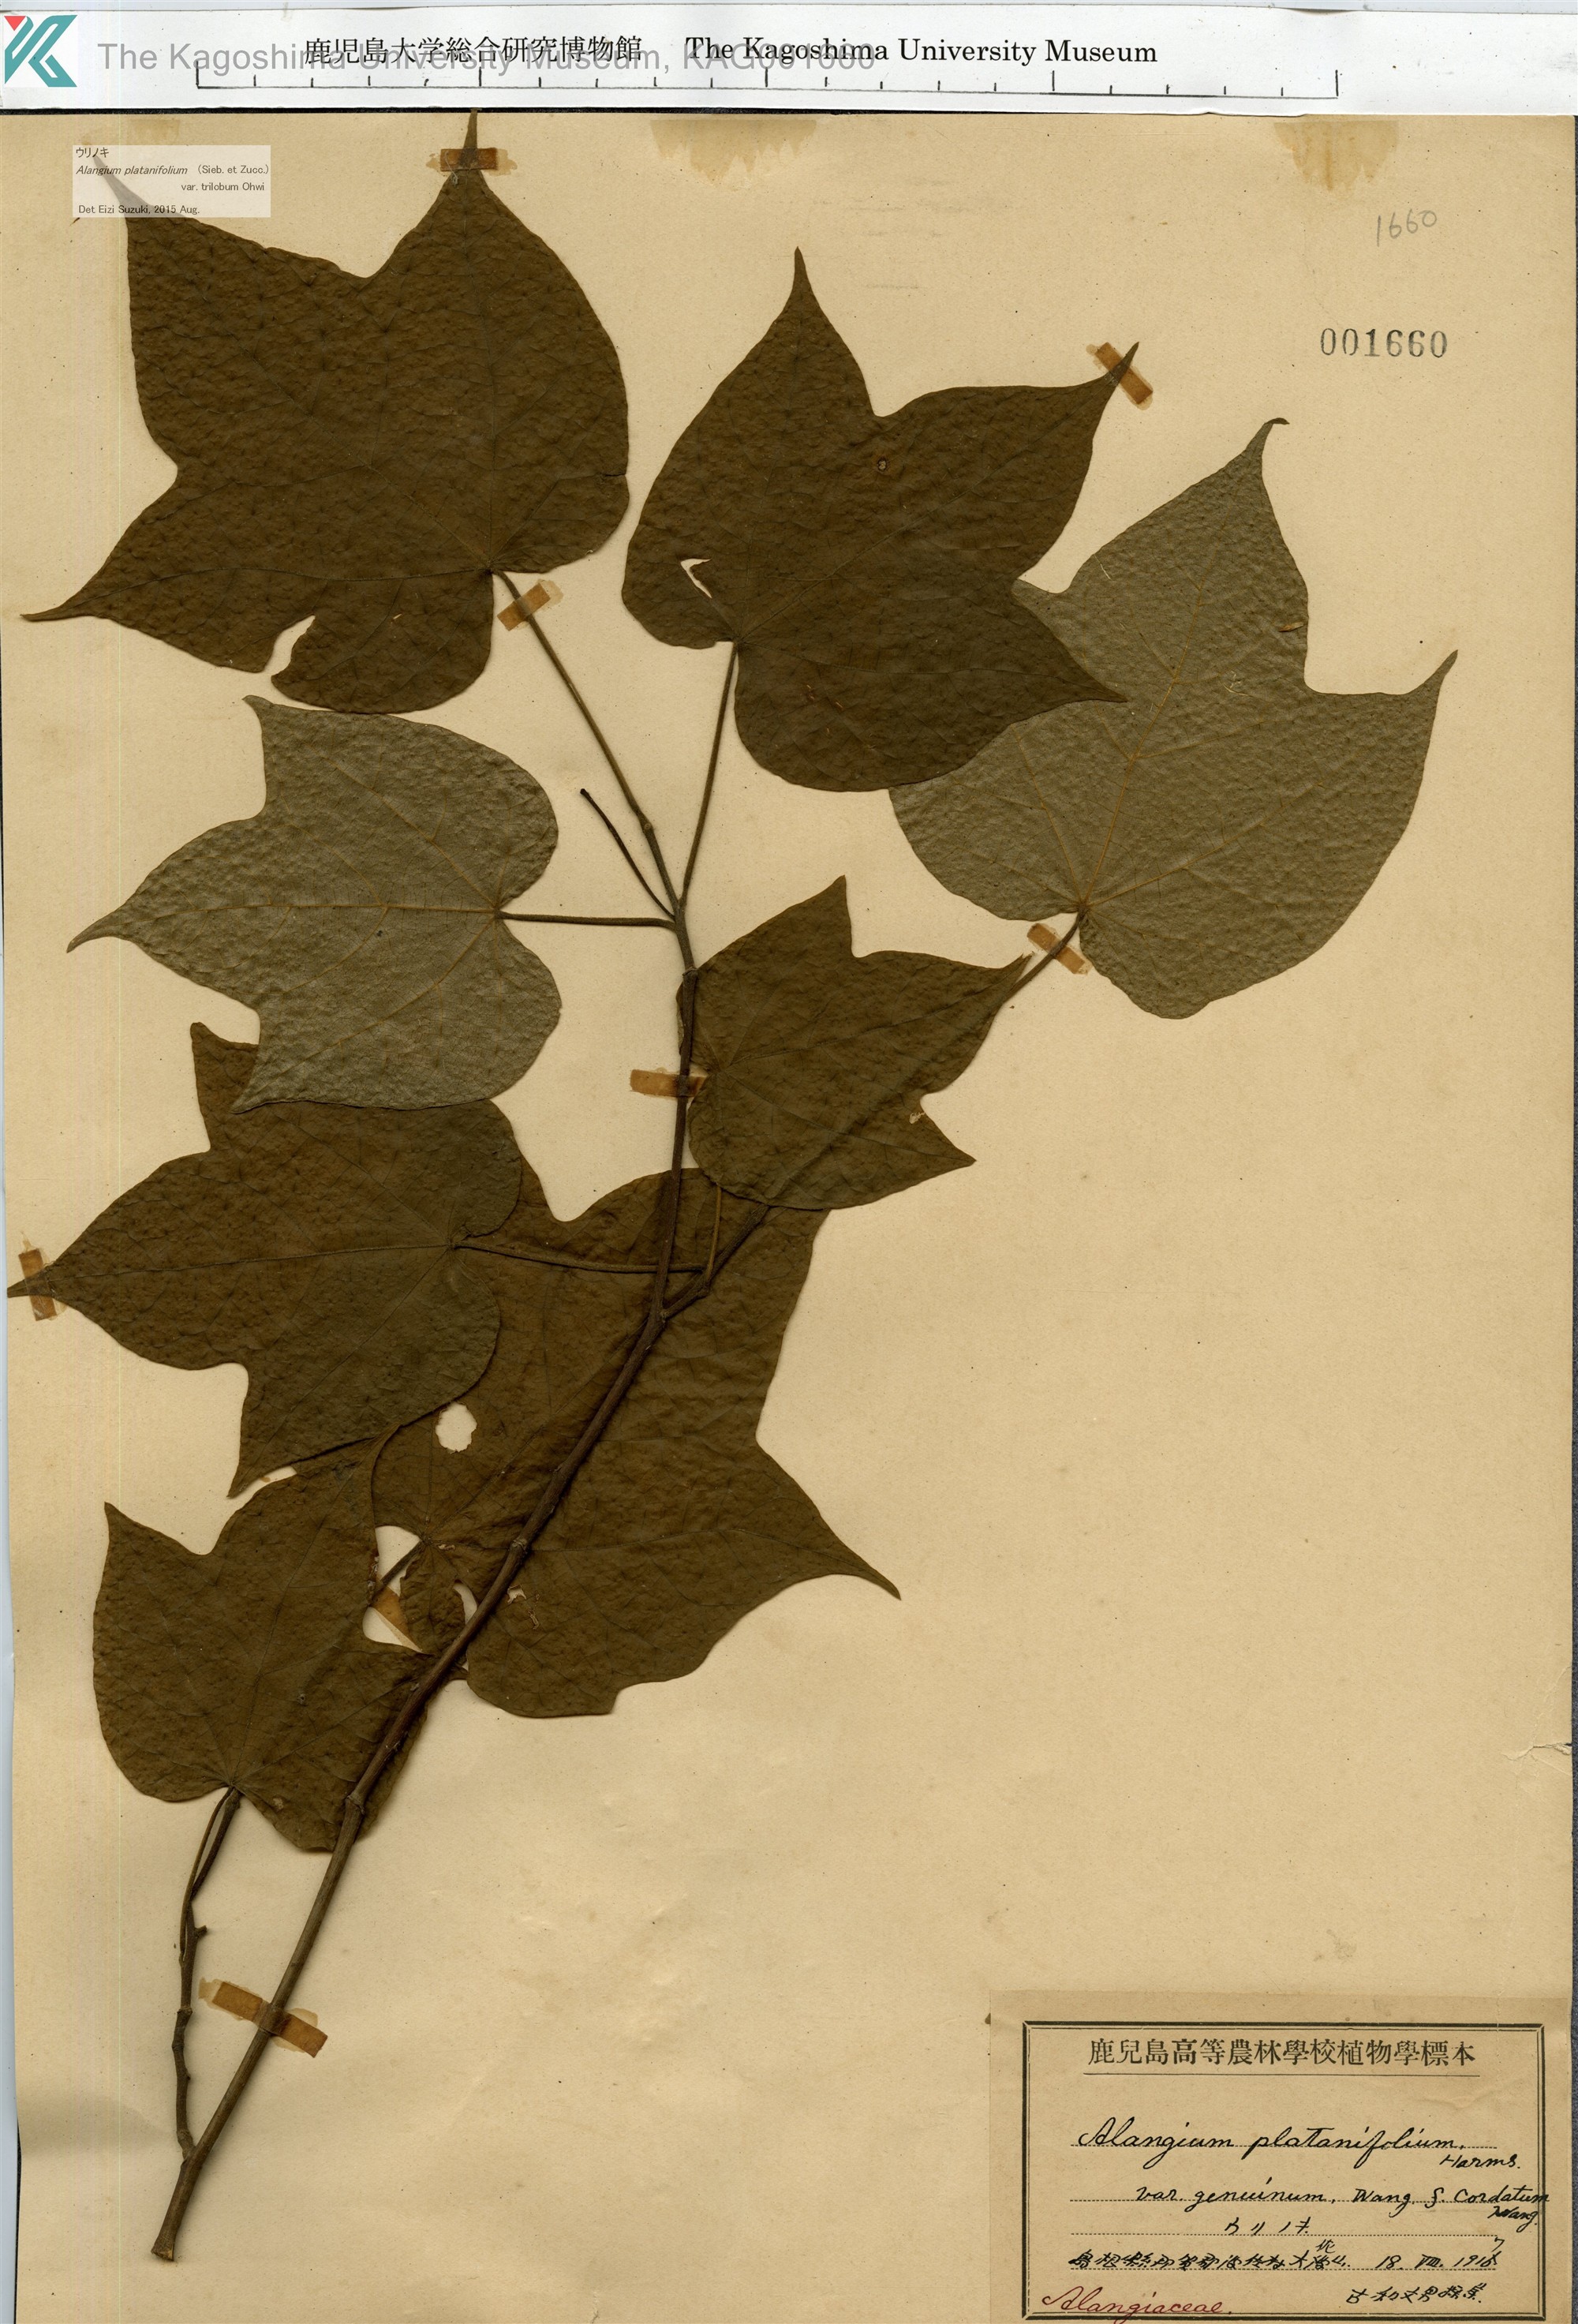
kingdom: Plantae
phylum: Tracheophyta
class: Magnoliopsida
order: Cornales
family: Cornaceae
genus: Alangium
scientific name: Alangium platanifolium
